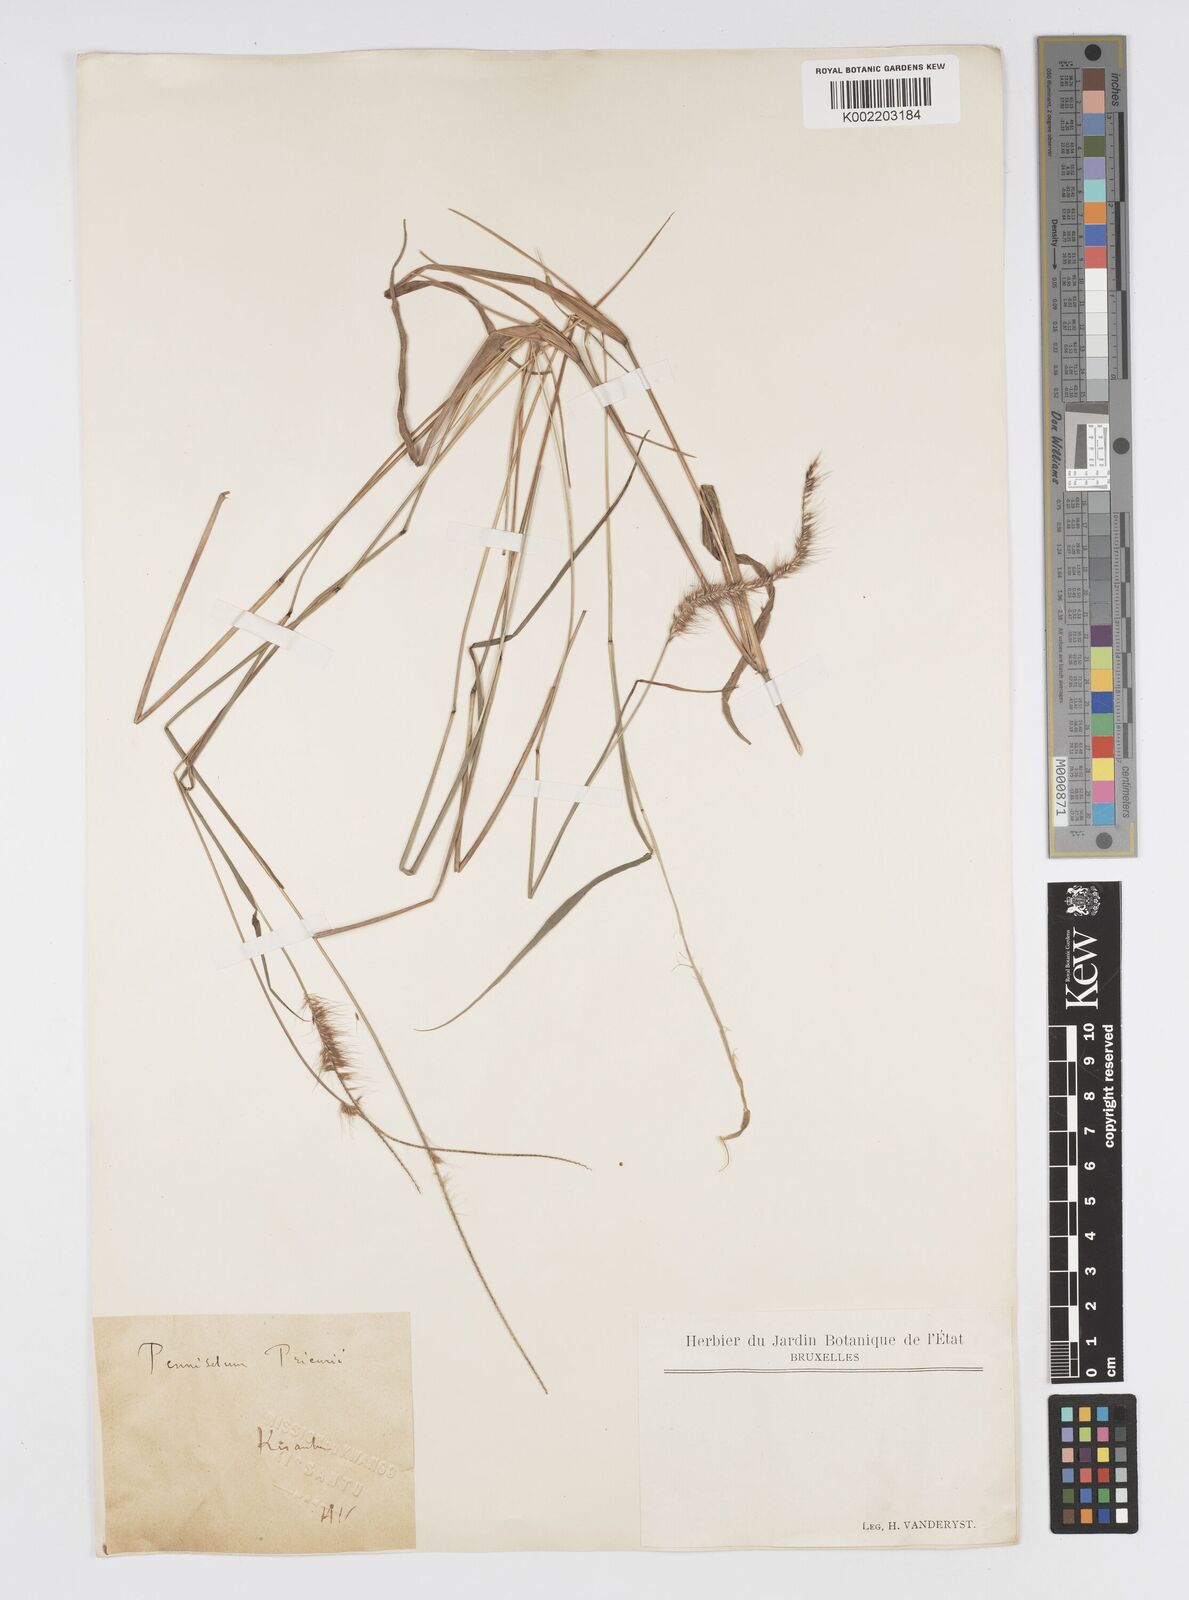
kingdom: Plantae
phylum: Tracheophyta
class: Liliopsida
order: Poales
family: Poaceae
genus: Cenchrus
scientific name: Cenchrus hordeoides
